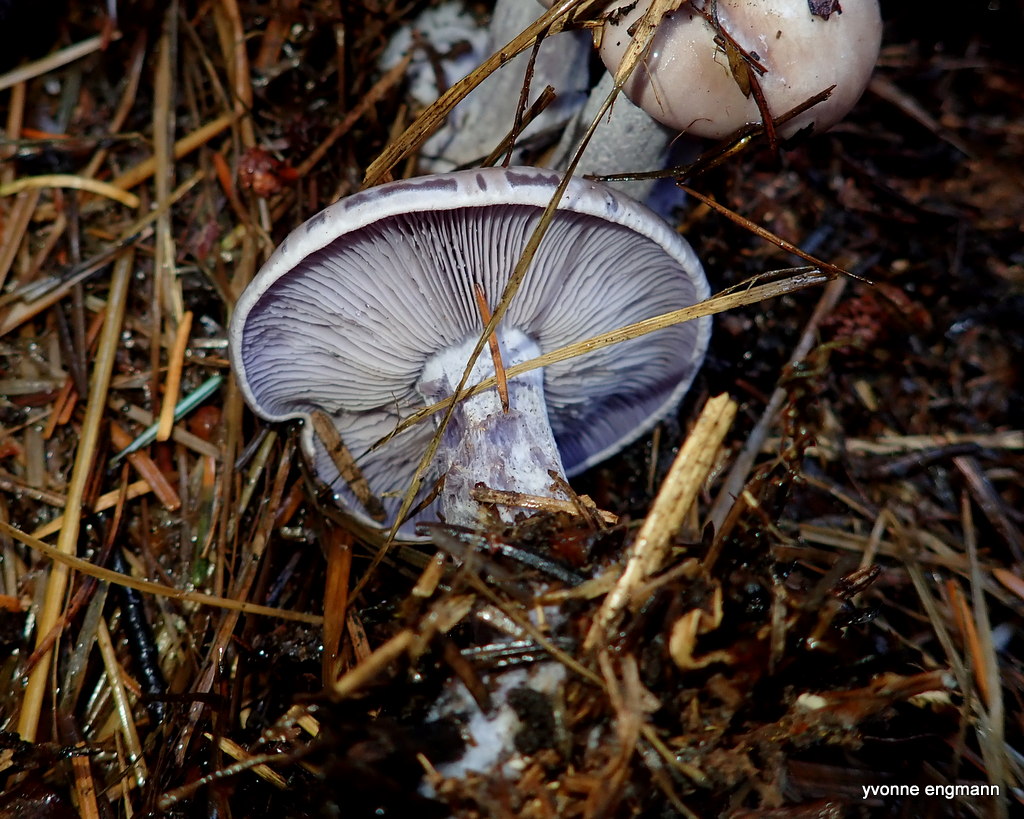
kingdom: Fungi
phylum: Basidiomycota
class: Agaricomycetes
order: Agaricales
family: Tricholomataceae
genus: Lepista
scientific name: Lepista nuda
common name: violet hekseringshat
